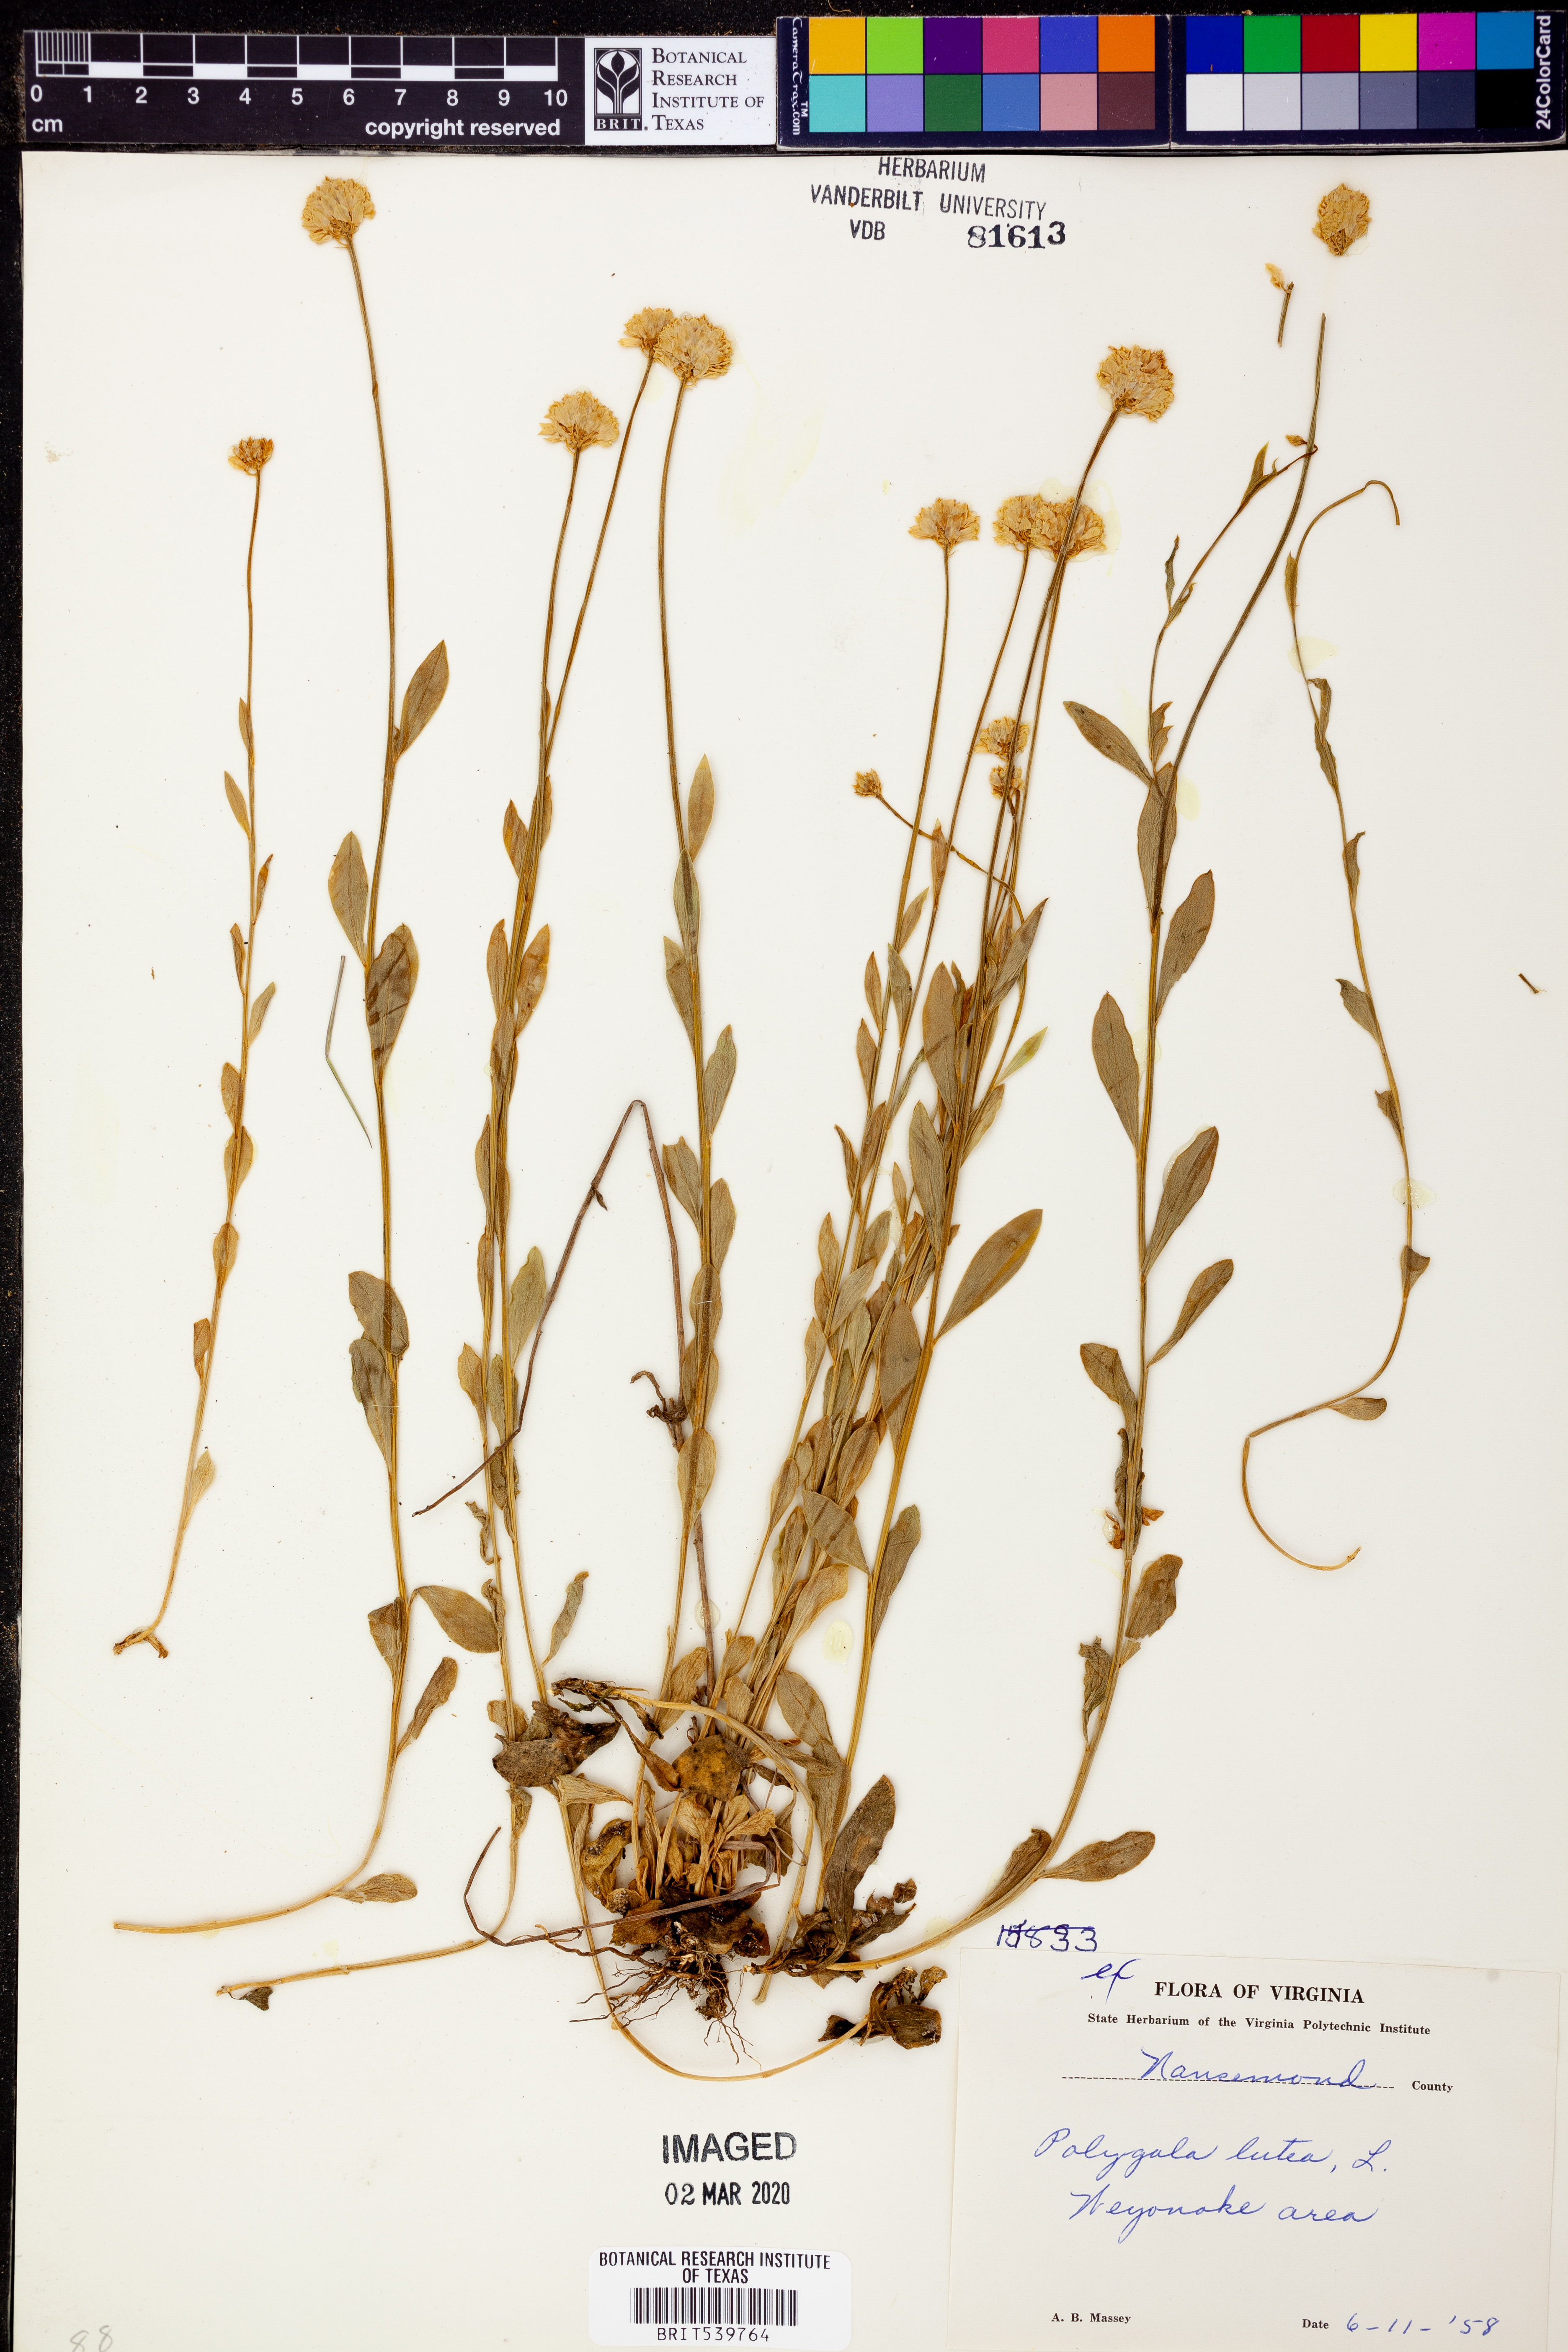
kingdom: Plantae
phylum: Tracheophyta
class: Magnoliopsida
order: Fabales
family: Polygalaceae
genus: Polygala
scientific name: Polygala lutea
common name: Orange milkwort
